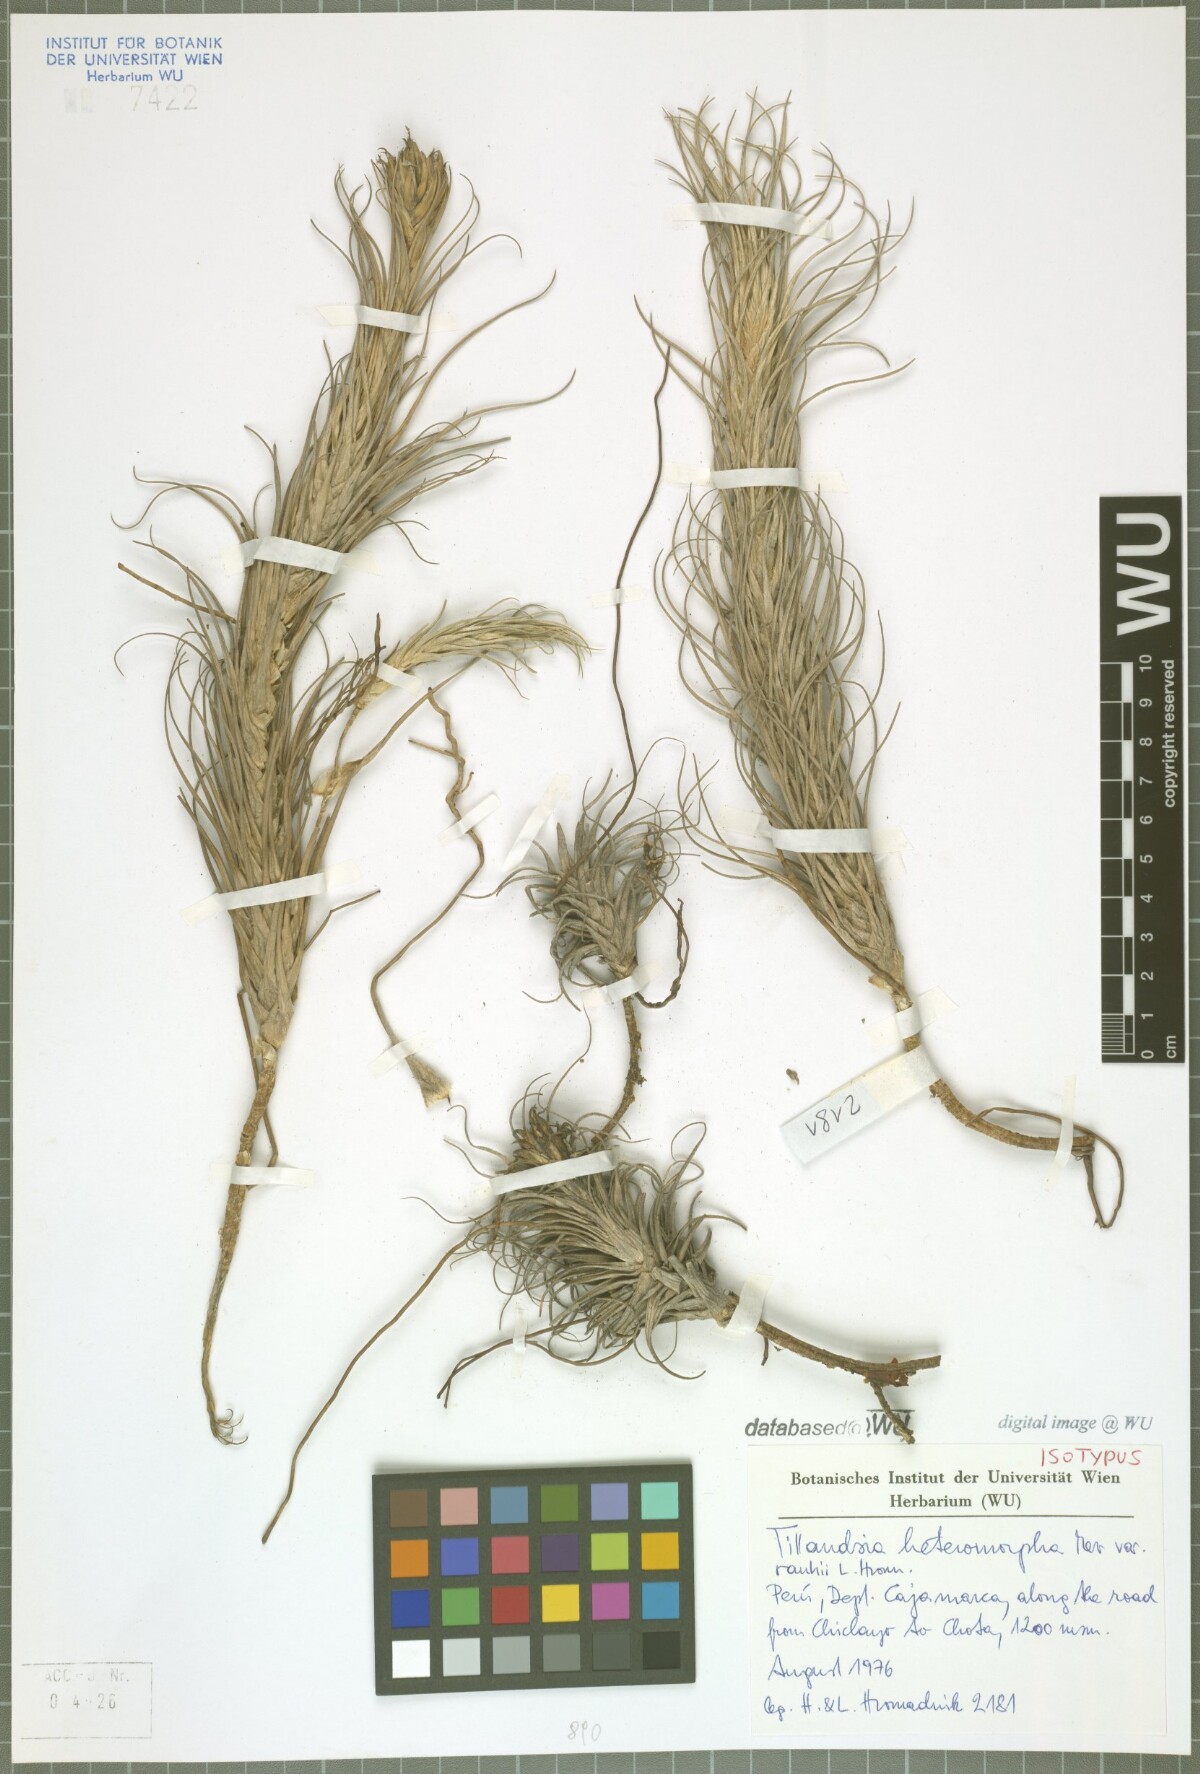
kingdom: Plantae
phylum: Tracheophyta
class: Liliopsida
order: Poales
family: Bromeliaceae
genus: Tillandsia
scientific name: Tillandsia heteromorpha
